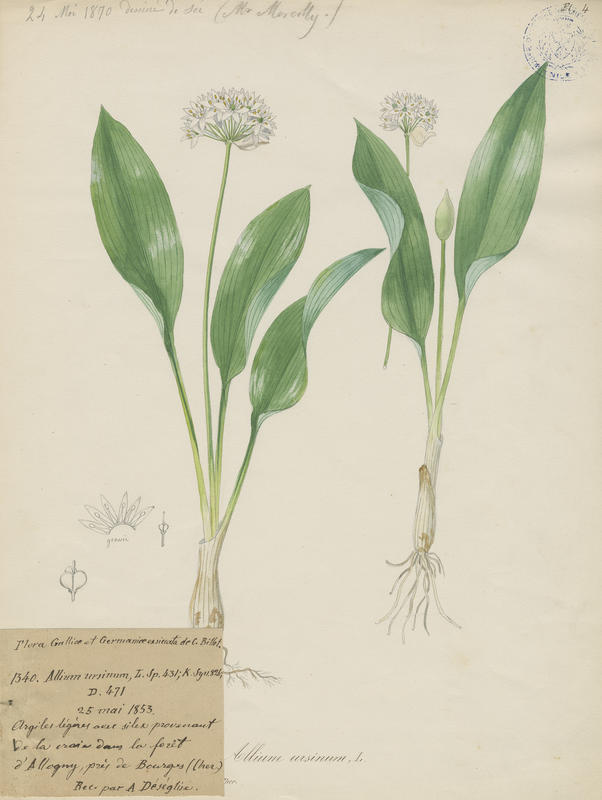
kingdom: Plantae
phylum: Tracheophyta
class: Liliopsida
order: Asparagales
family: Amaryllidaceae
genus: Allium
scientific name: Allium ursinum
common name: Ramsons
